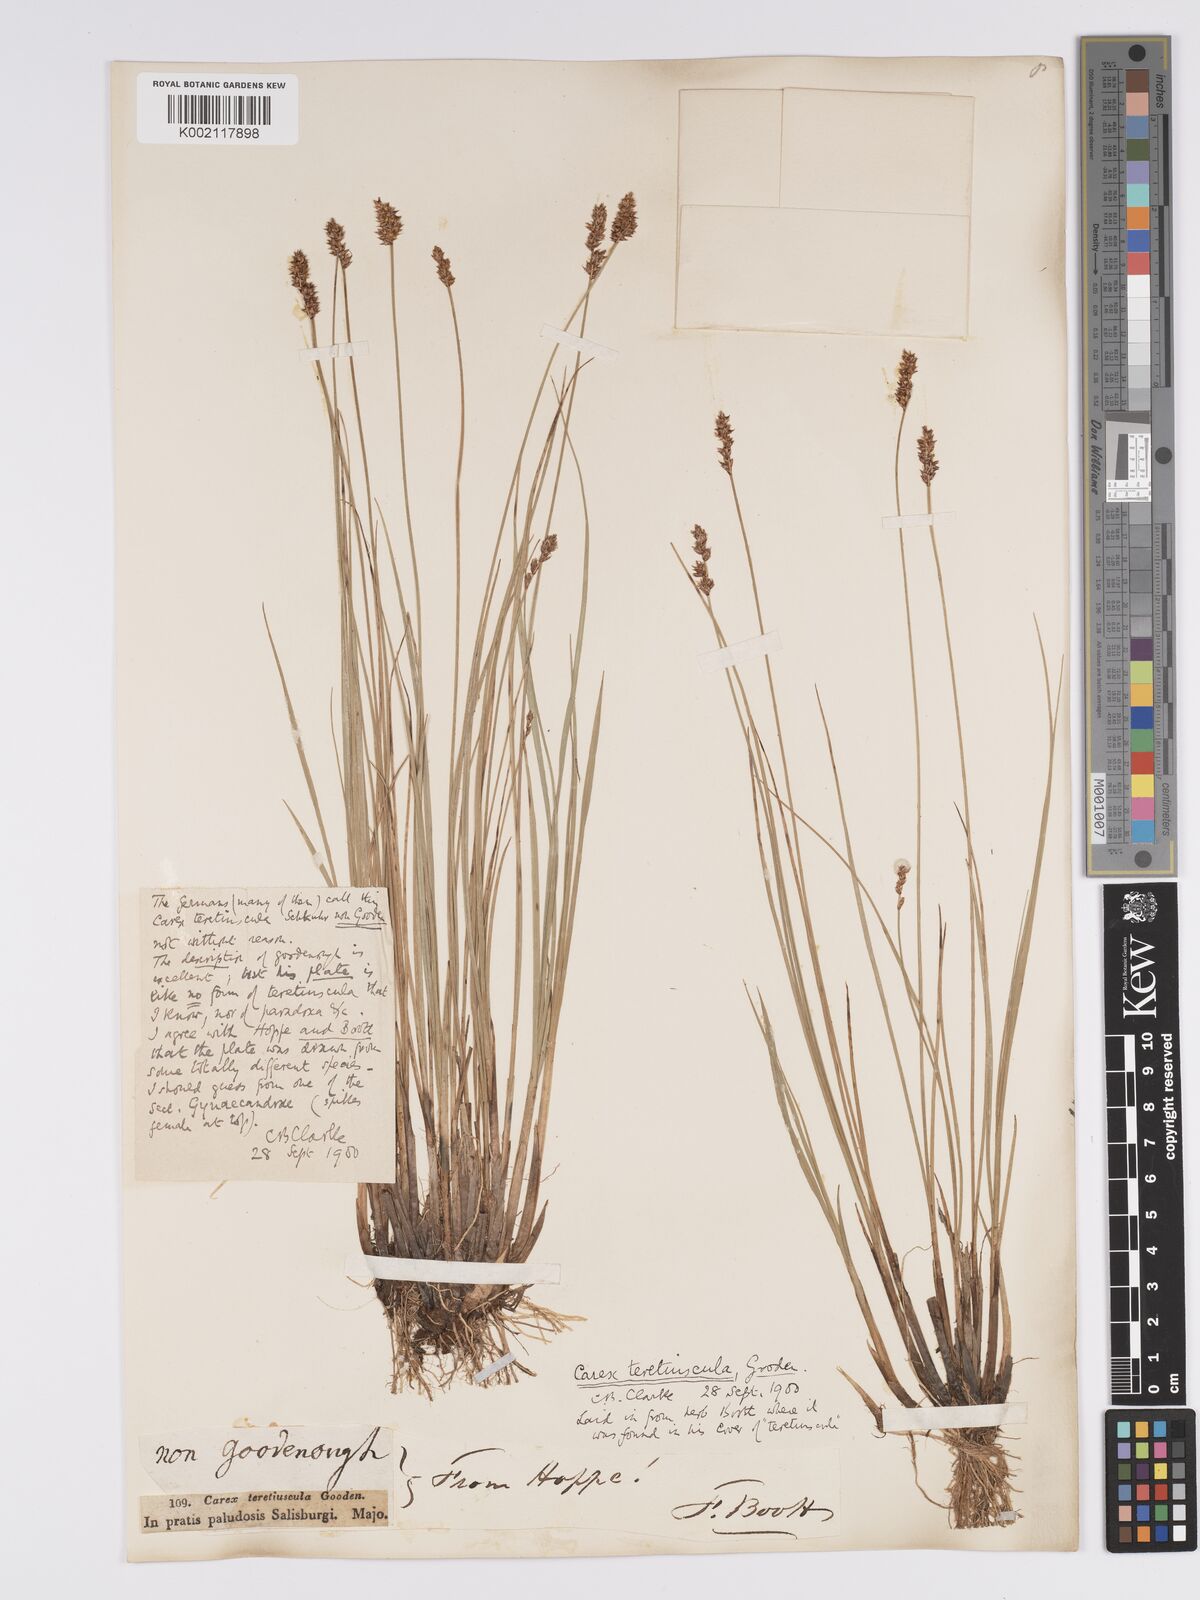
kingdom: Plantae
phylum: Tracheophyta
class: Liliopsida
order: Poales
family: Cyperaceae
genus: Carex
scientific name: Carex diandra
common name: Lesser tussock-sedge
